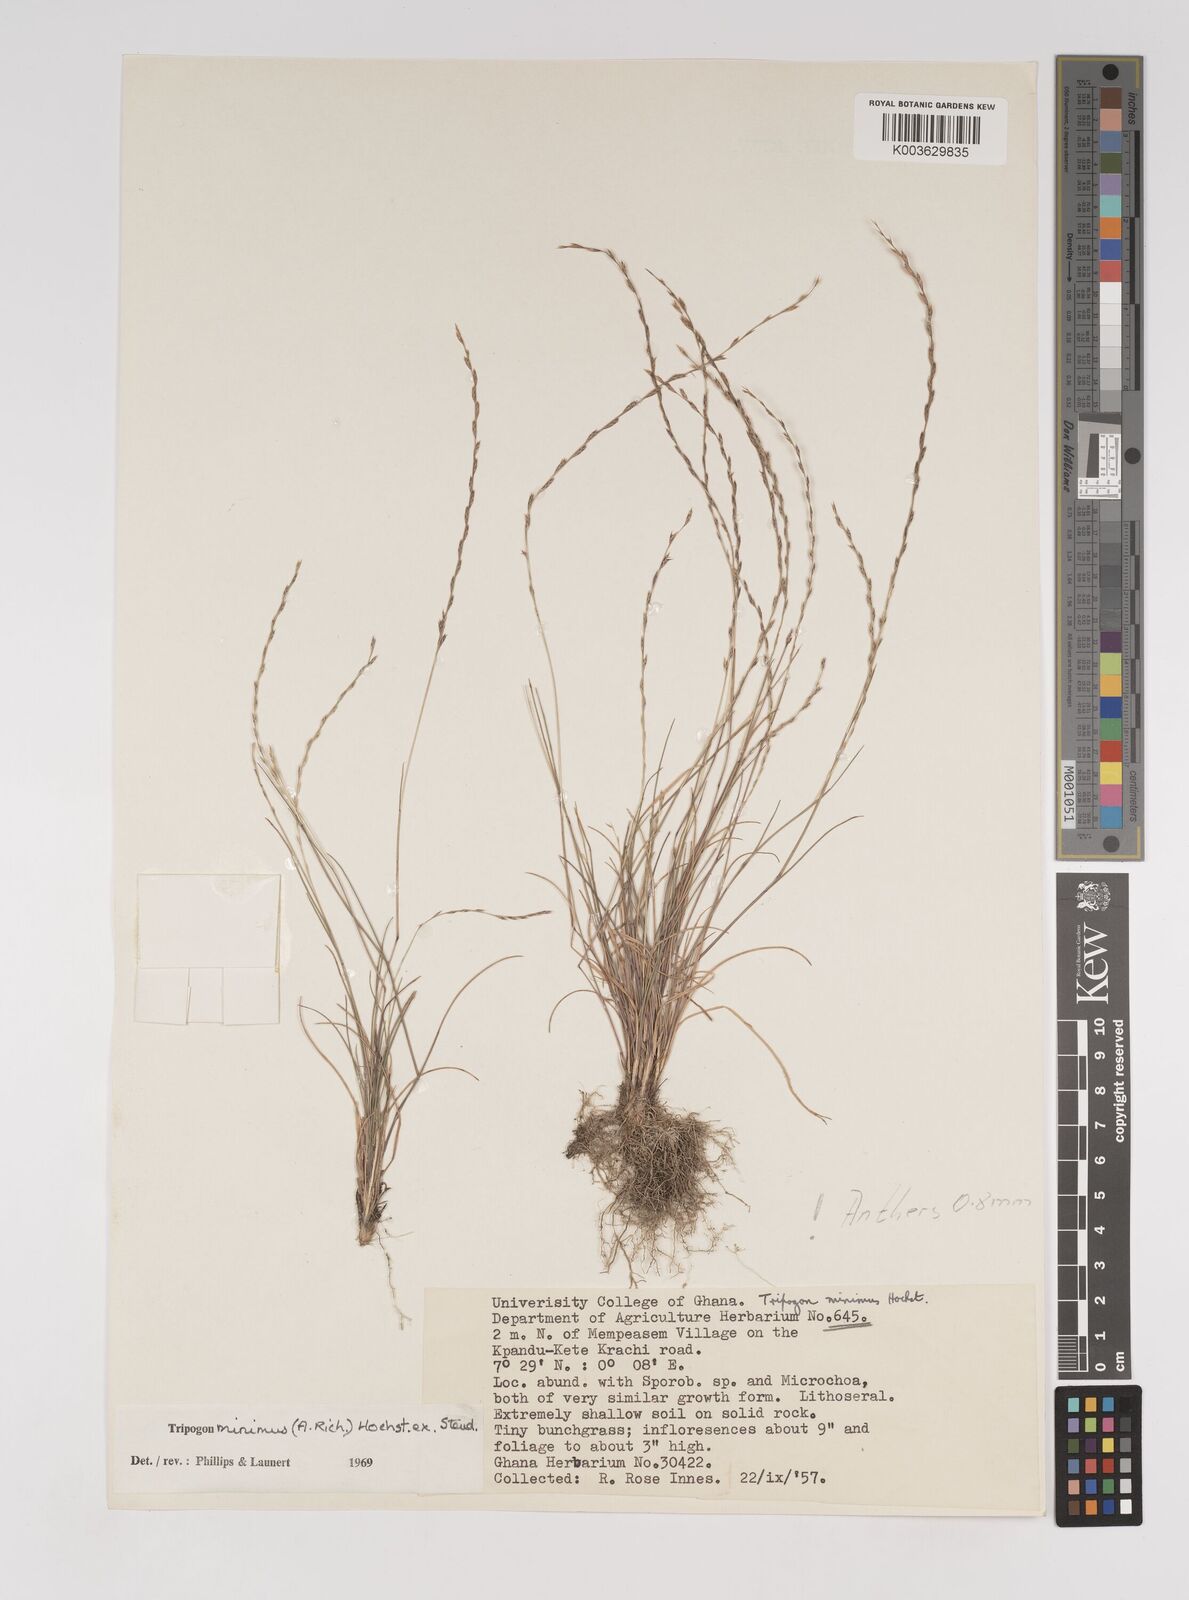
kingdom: Plantae
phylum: Tracheophyta
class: Liliopsida
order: Poales
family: Poaceae
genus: Tripogonella
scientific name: Tripogonella minima
